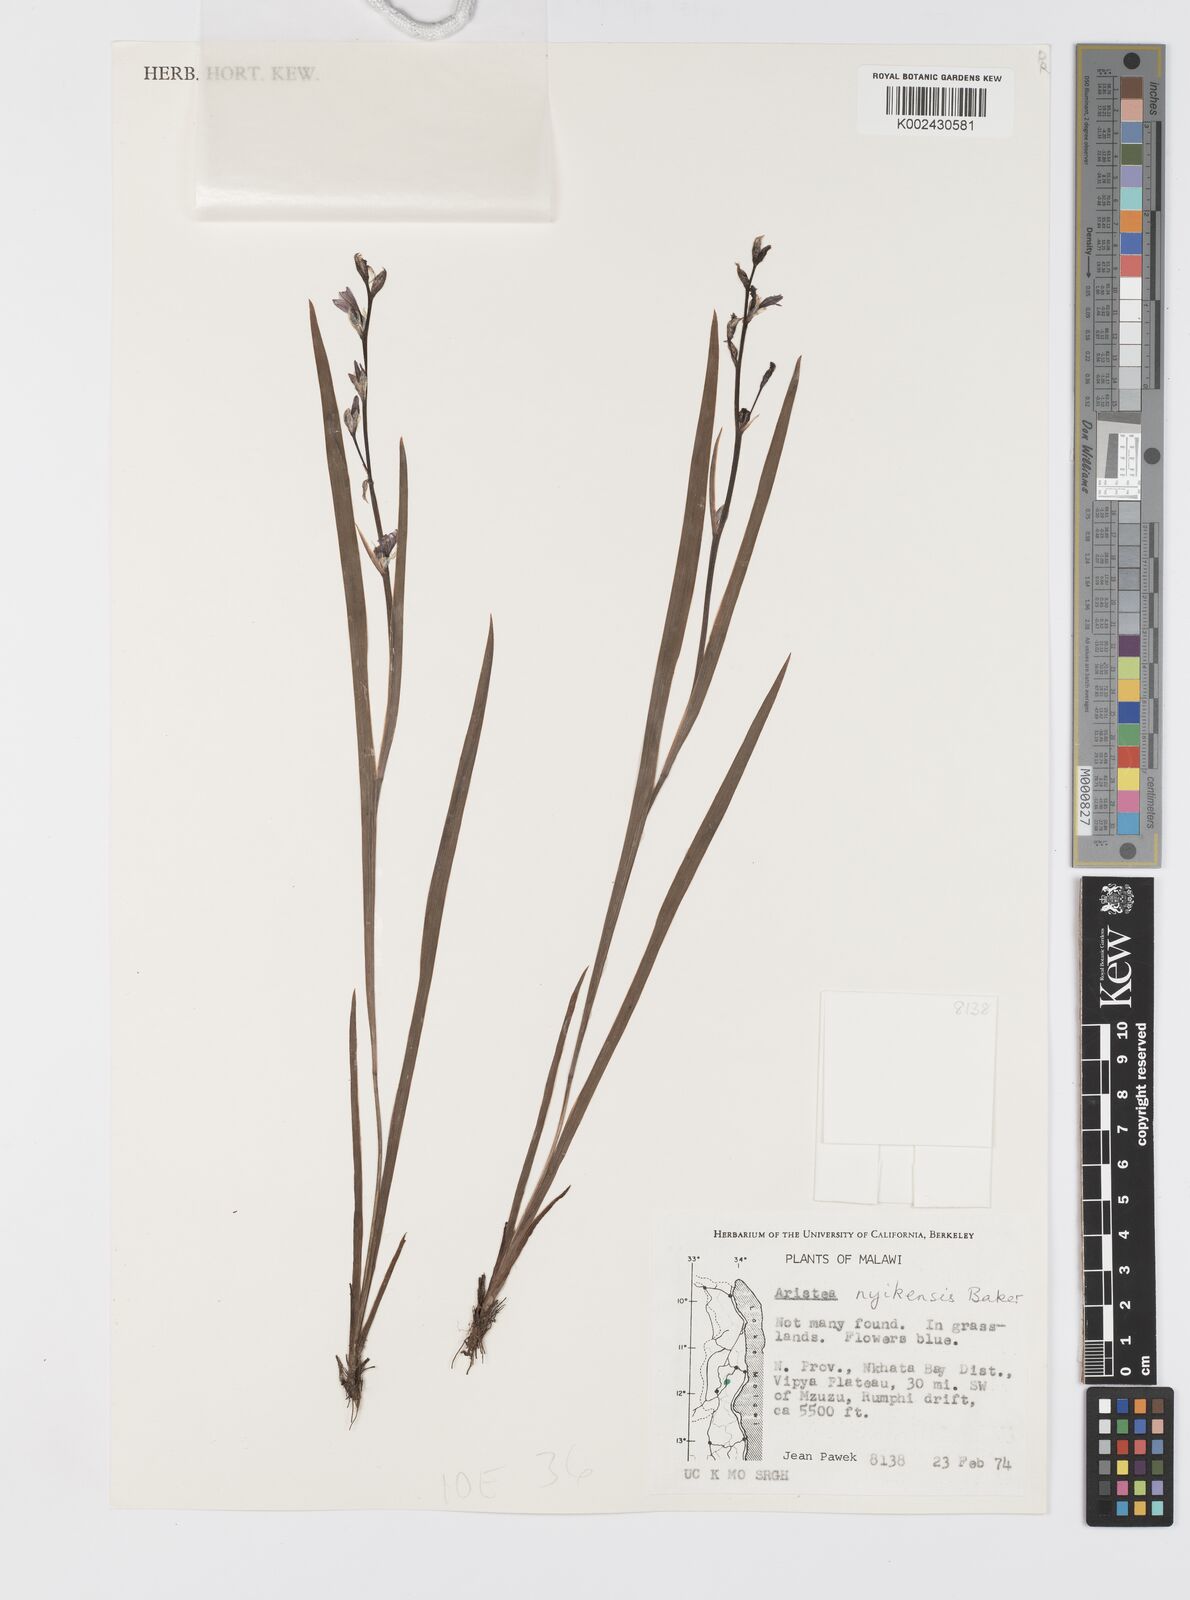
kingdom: Plantae
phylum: Tracheophyta
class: Liliopsida
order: Asparagales
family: Iridaceae
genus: Aristea
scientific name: Aristea nyikensis
